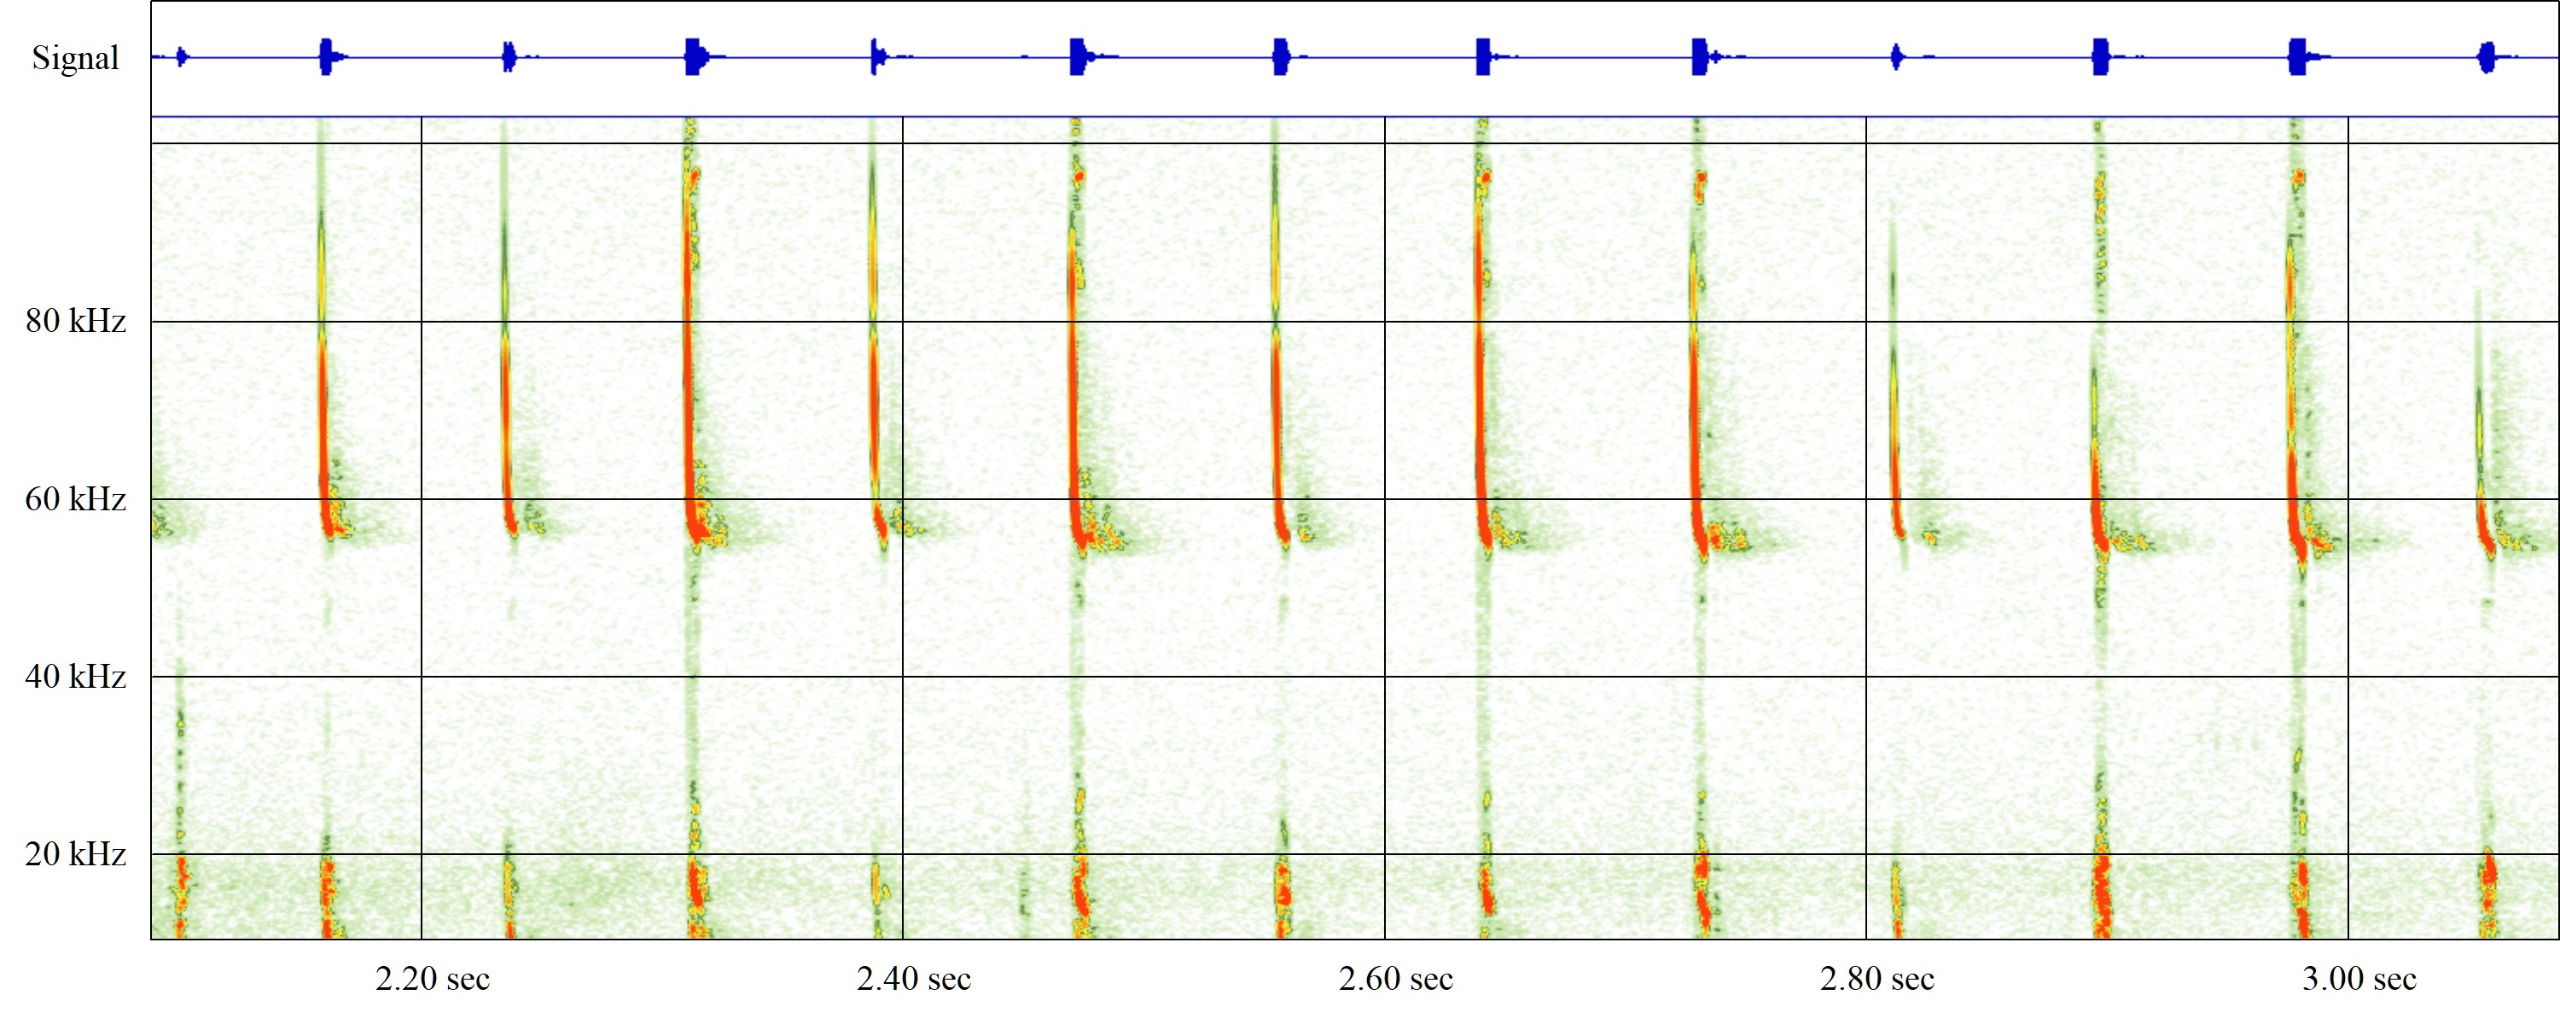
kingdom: Animalia
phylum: Chordata
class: Mammalia
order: Chiroptera
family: Vespertilionidae
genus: Pipistrellus
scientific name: Pipistrellus pygmaeus
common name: Dværgflagermus
